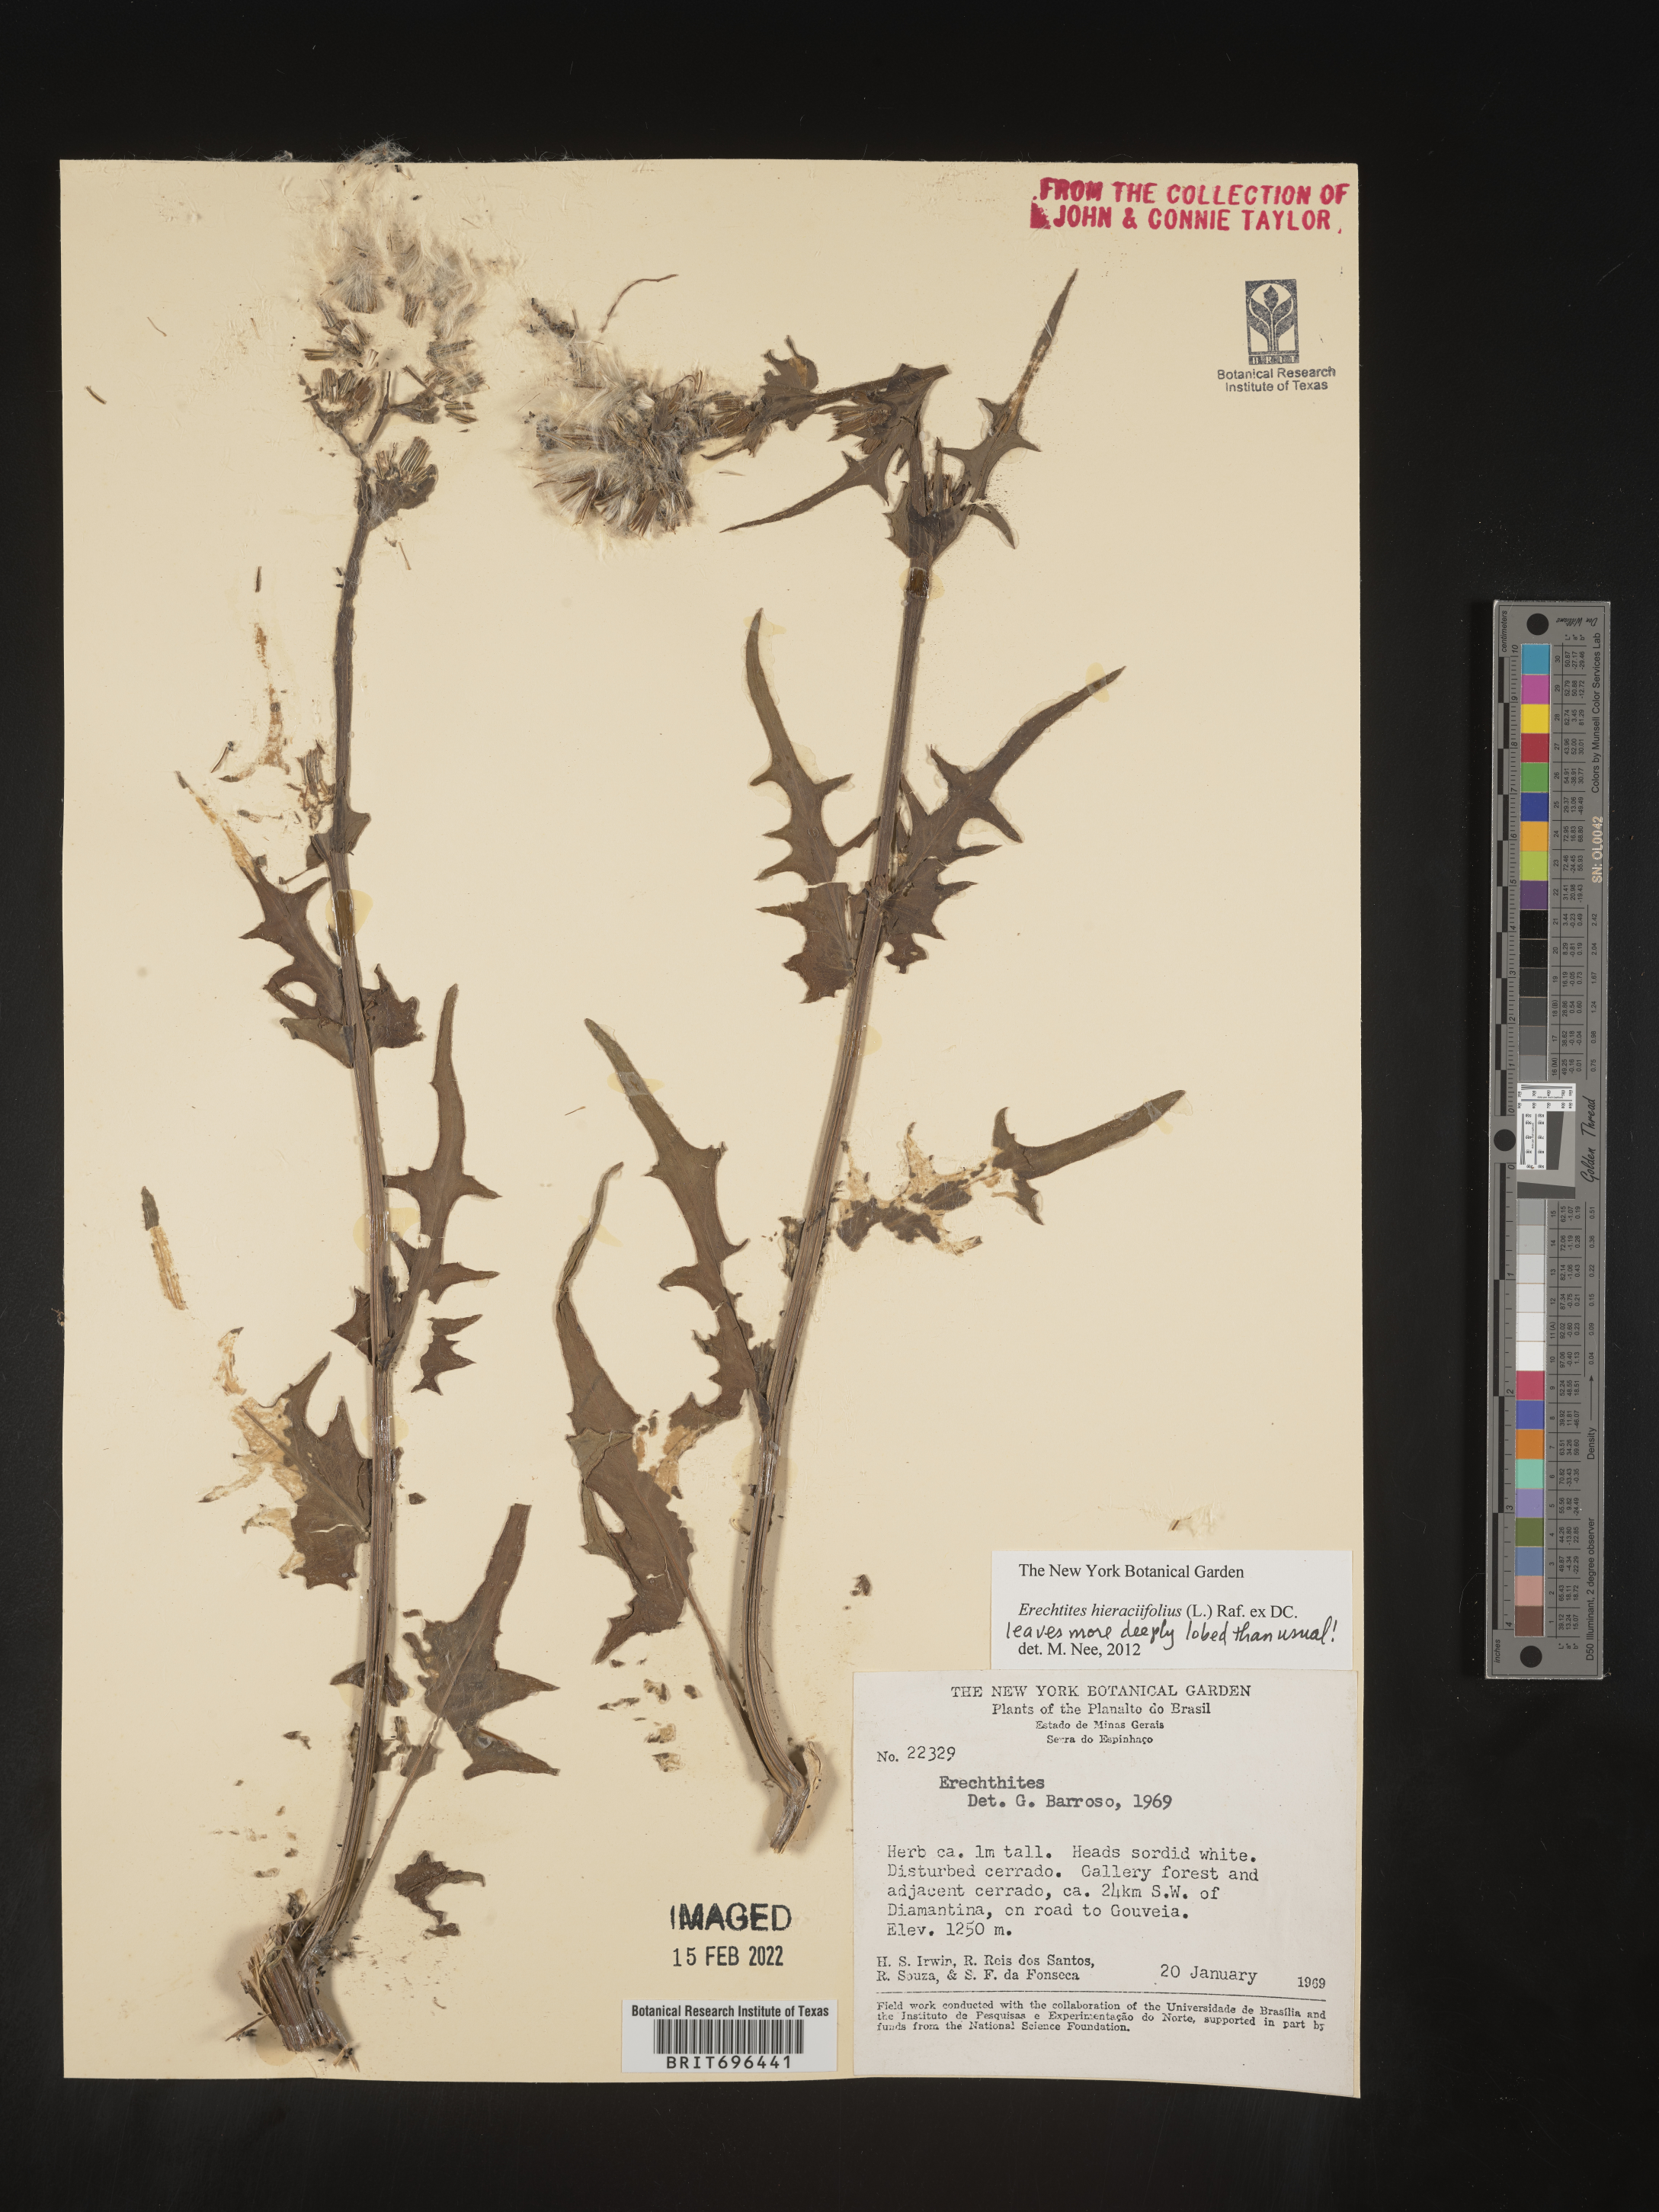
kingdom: Plantae
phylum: Tracheophyta
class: Magnoliopsida
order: Asterales
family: Asteraceae
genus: Erechtites
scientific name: Erechtites
